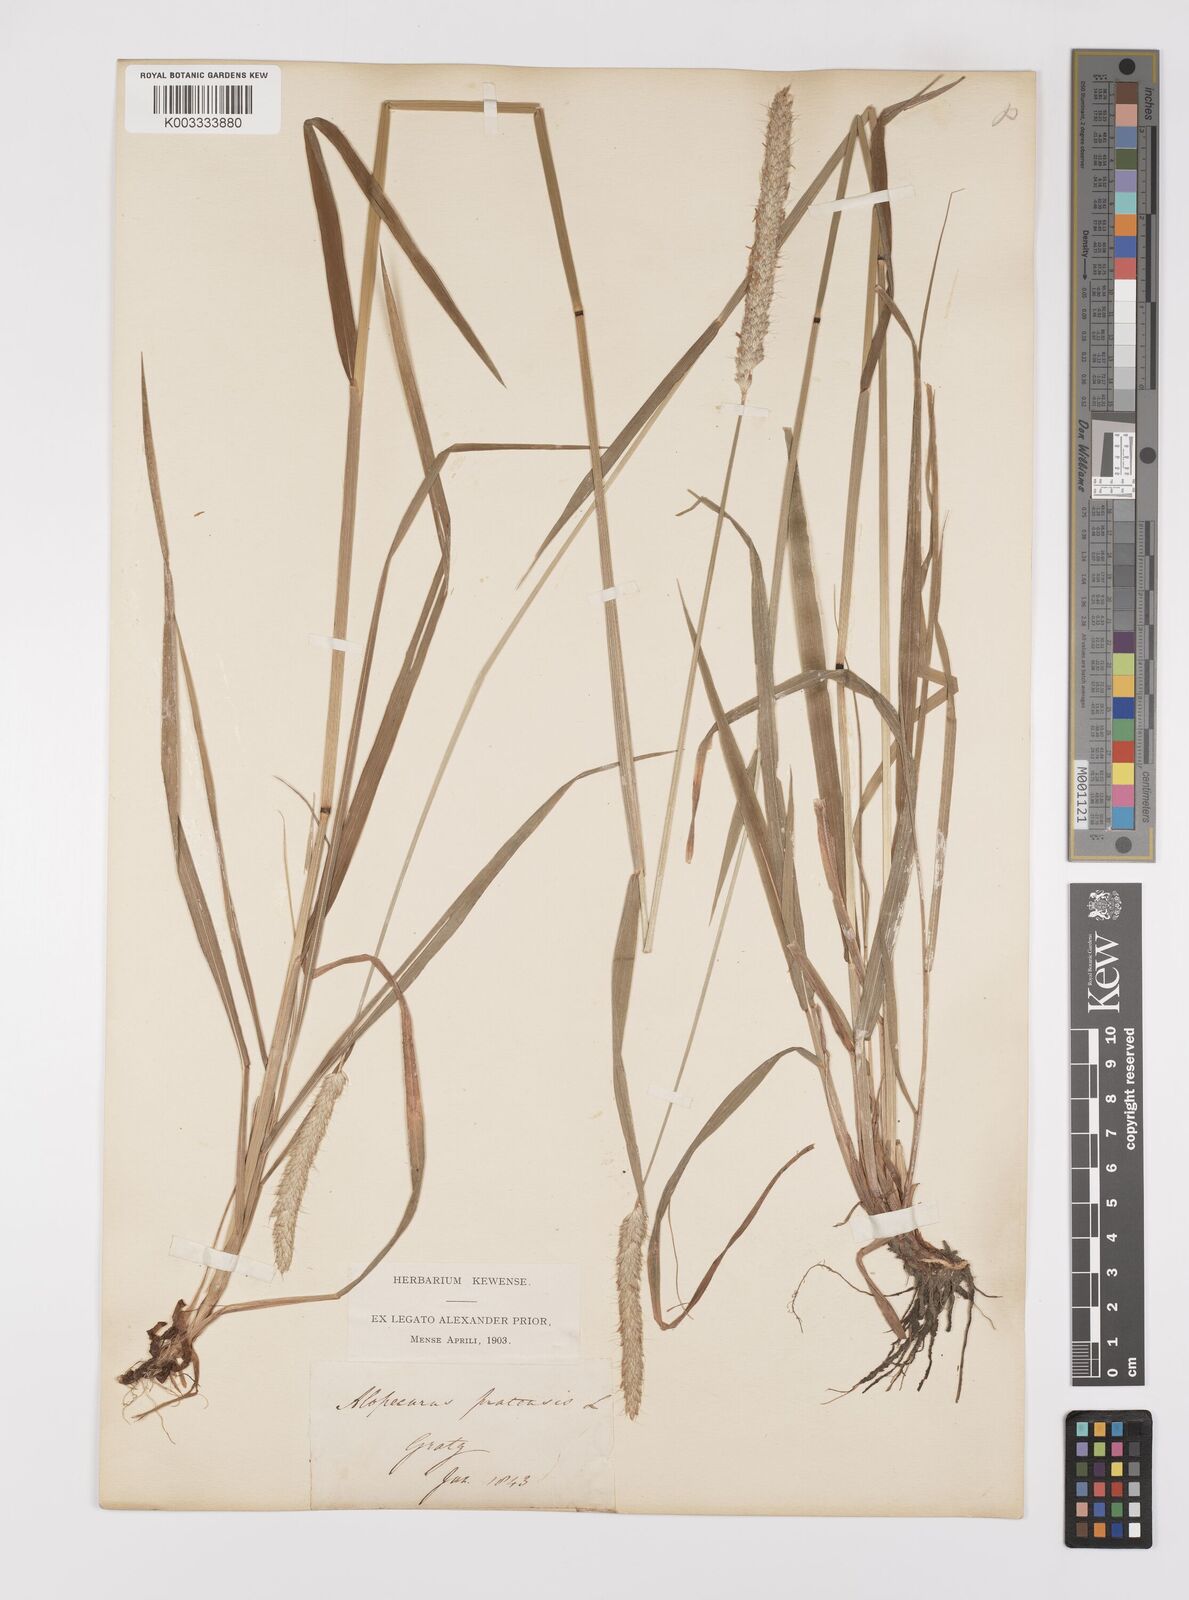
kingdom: Plantae
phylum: Tracheophyta
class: Liliopsida
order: Poales
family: Poaceae
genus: Alopecurus
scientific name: Alopecurus pratensis
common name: Meadow foxtail
